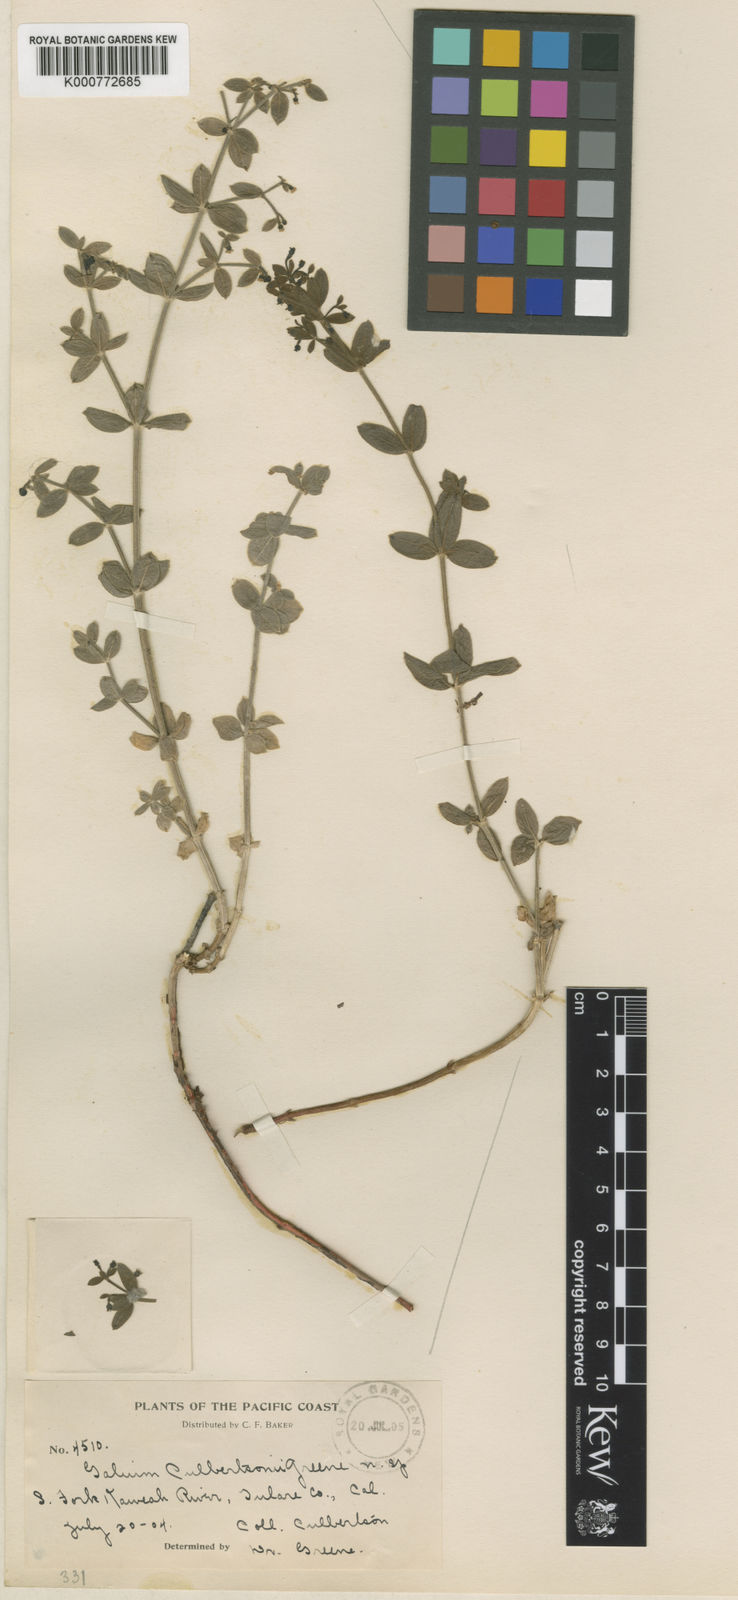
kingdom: Plantae
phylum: Tracheophyta
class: Magnoliopsida
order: Gentianales
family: Rubiaceae
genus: Galium
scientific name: Galium bolanderi
